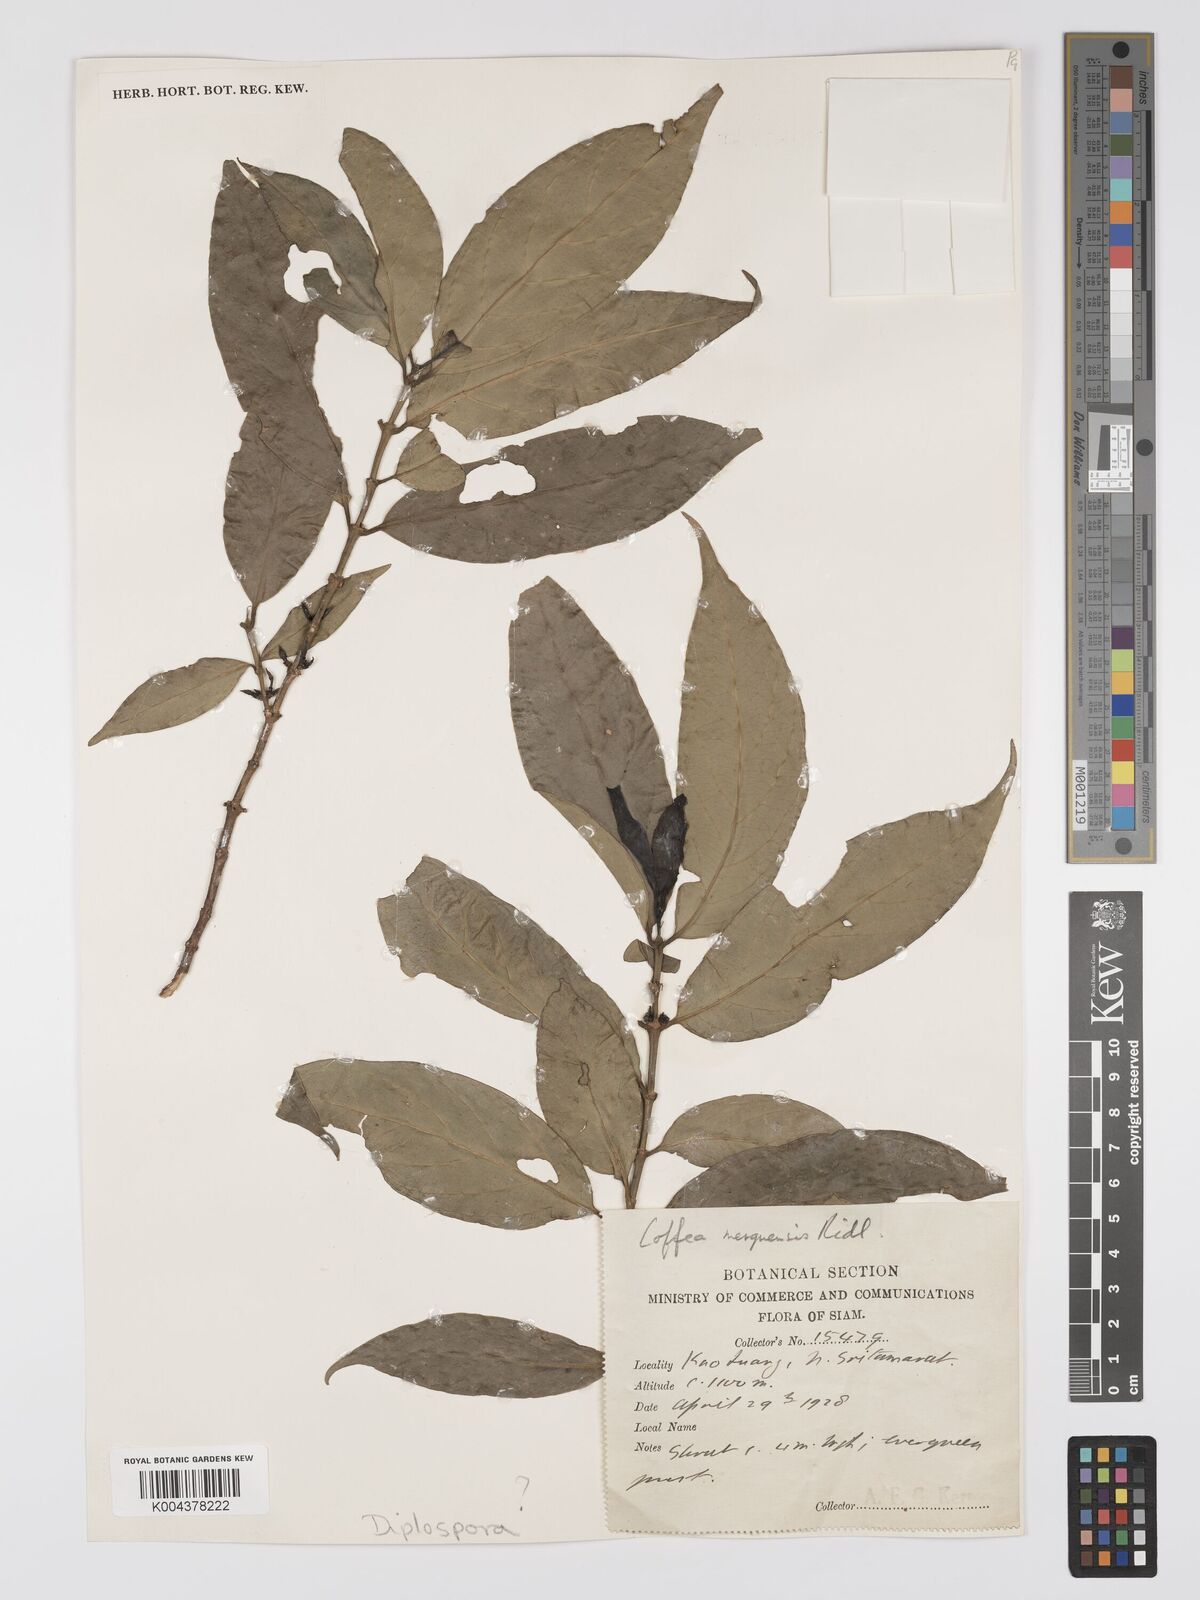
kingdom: Plantae
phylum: Tracheophyta
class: Magnoliopsida
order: Gentianales
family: Rubiaceae
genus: Diplospora
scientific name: Diplospora
